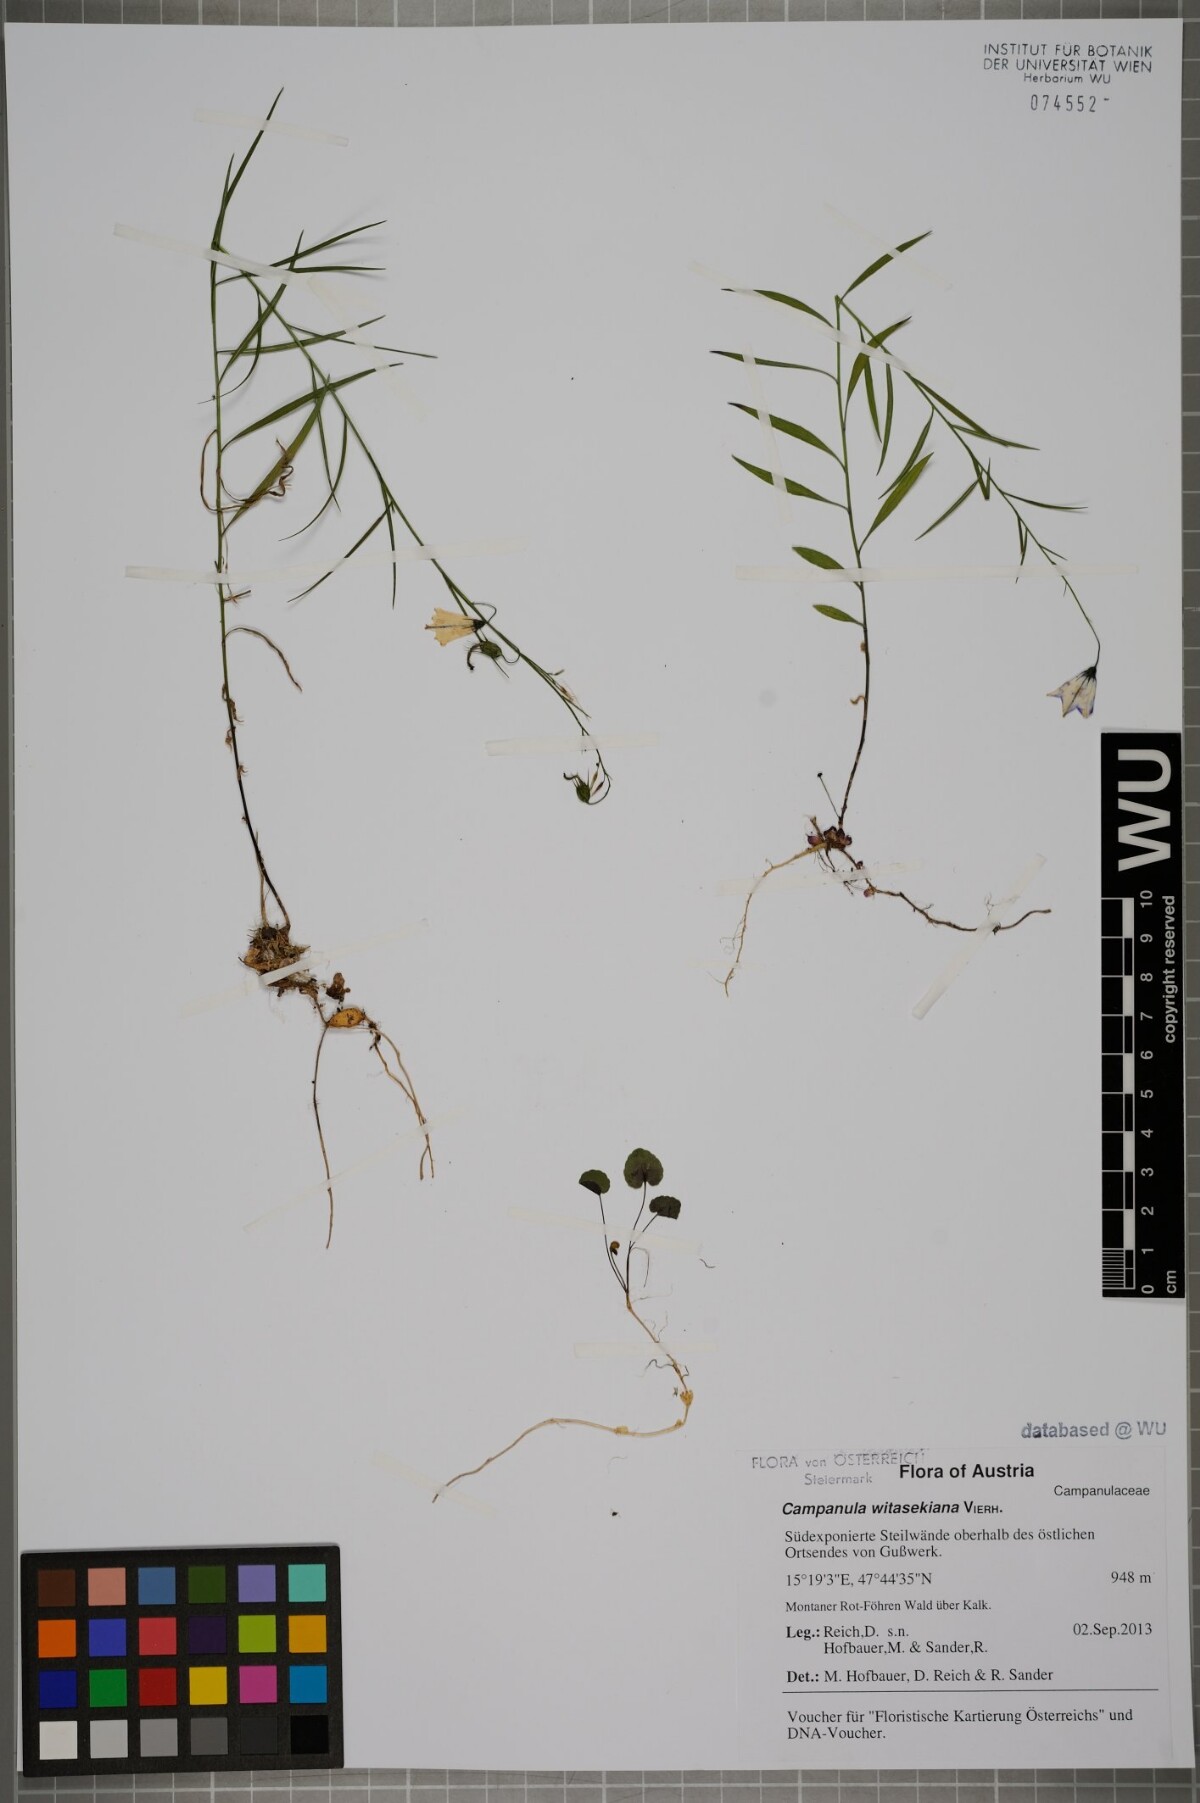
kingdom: Plantae
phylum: Tracheophyta
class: Magnoliopsida
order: Asterales
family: Campanulaceae
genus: Campanula
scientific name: Campanula witasekiana
